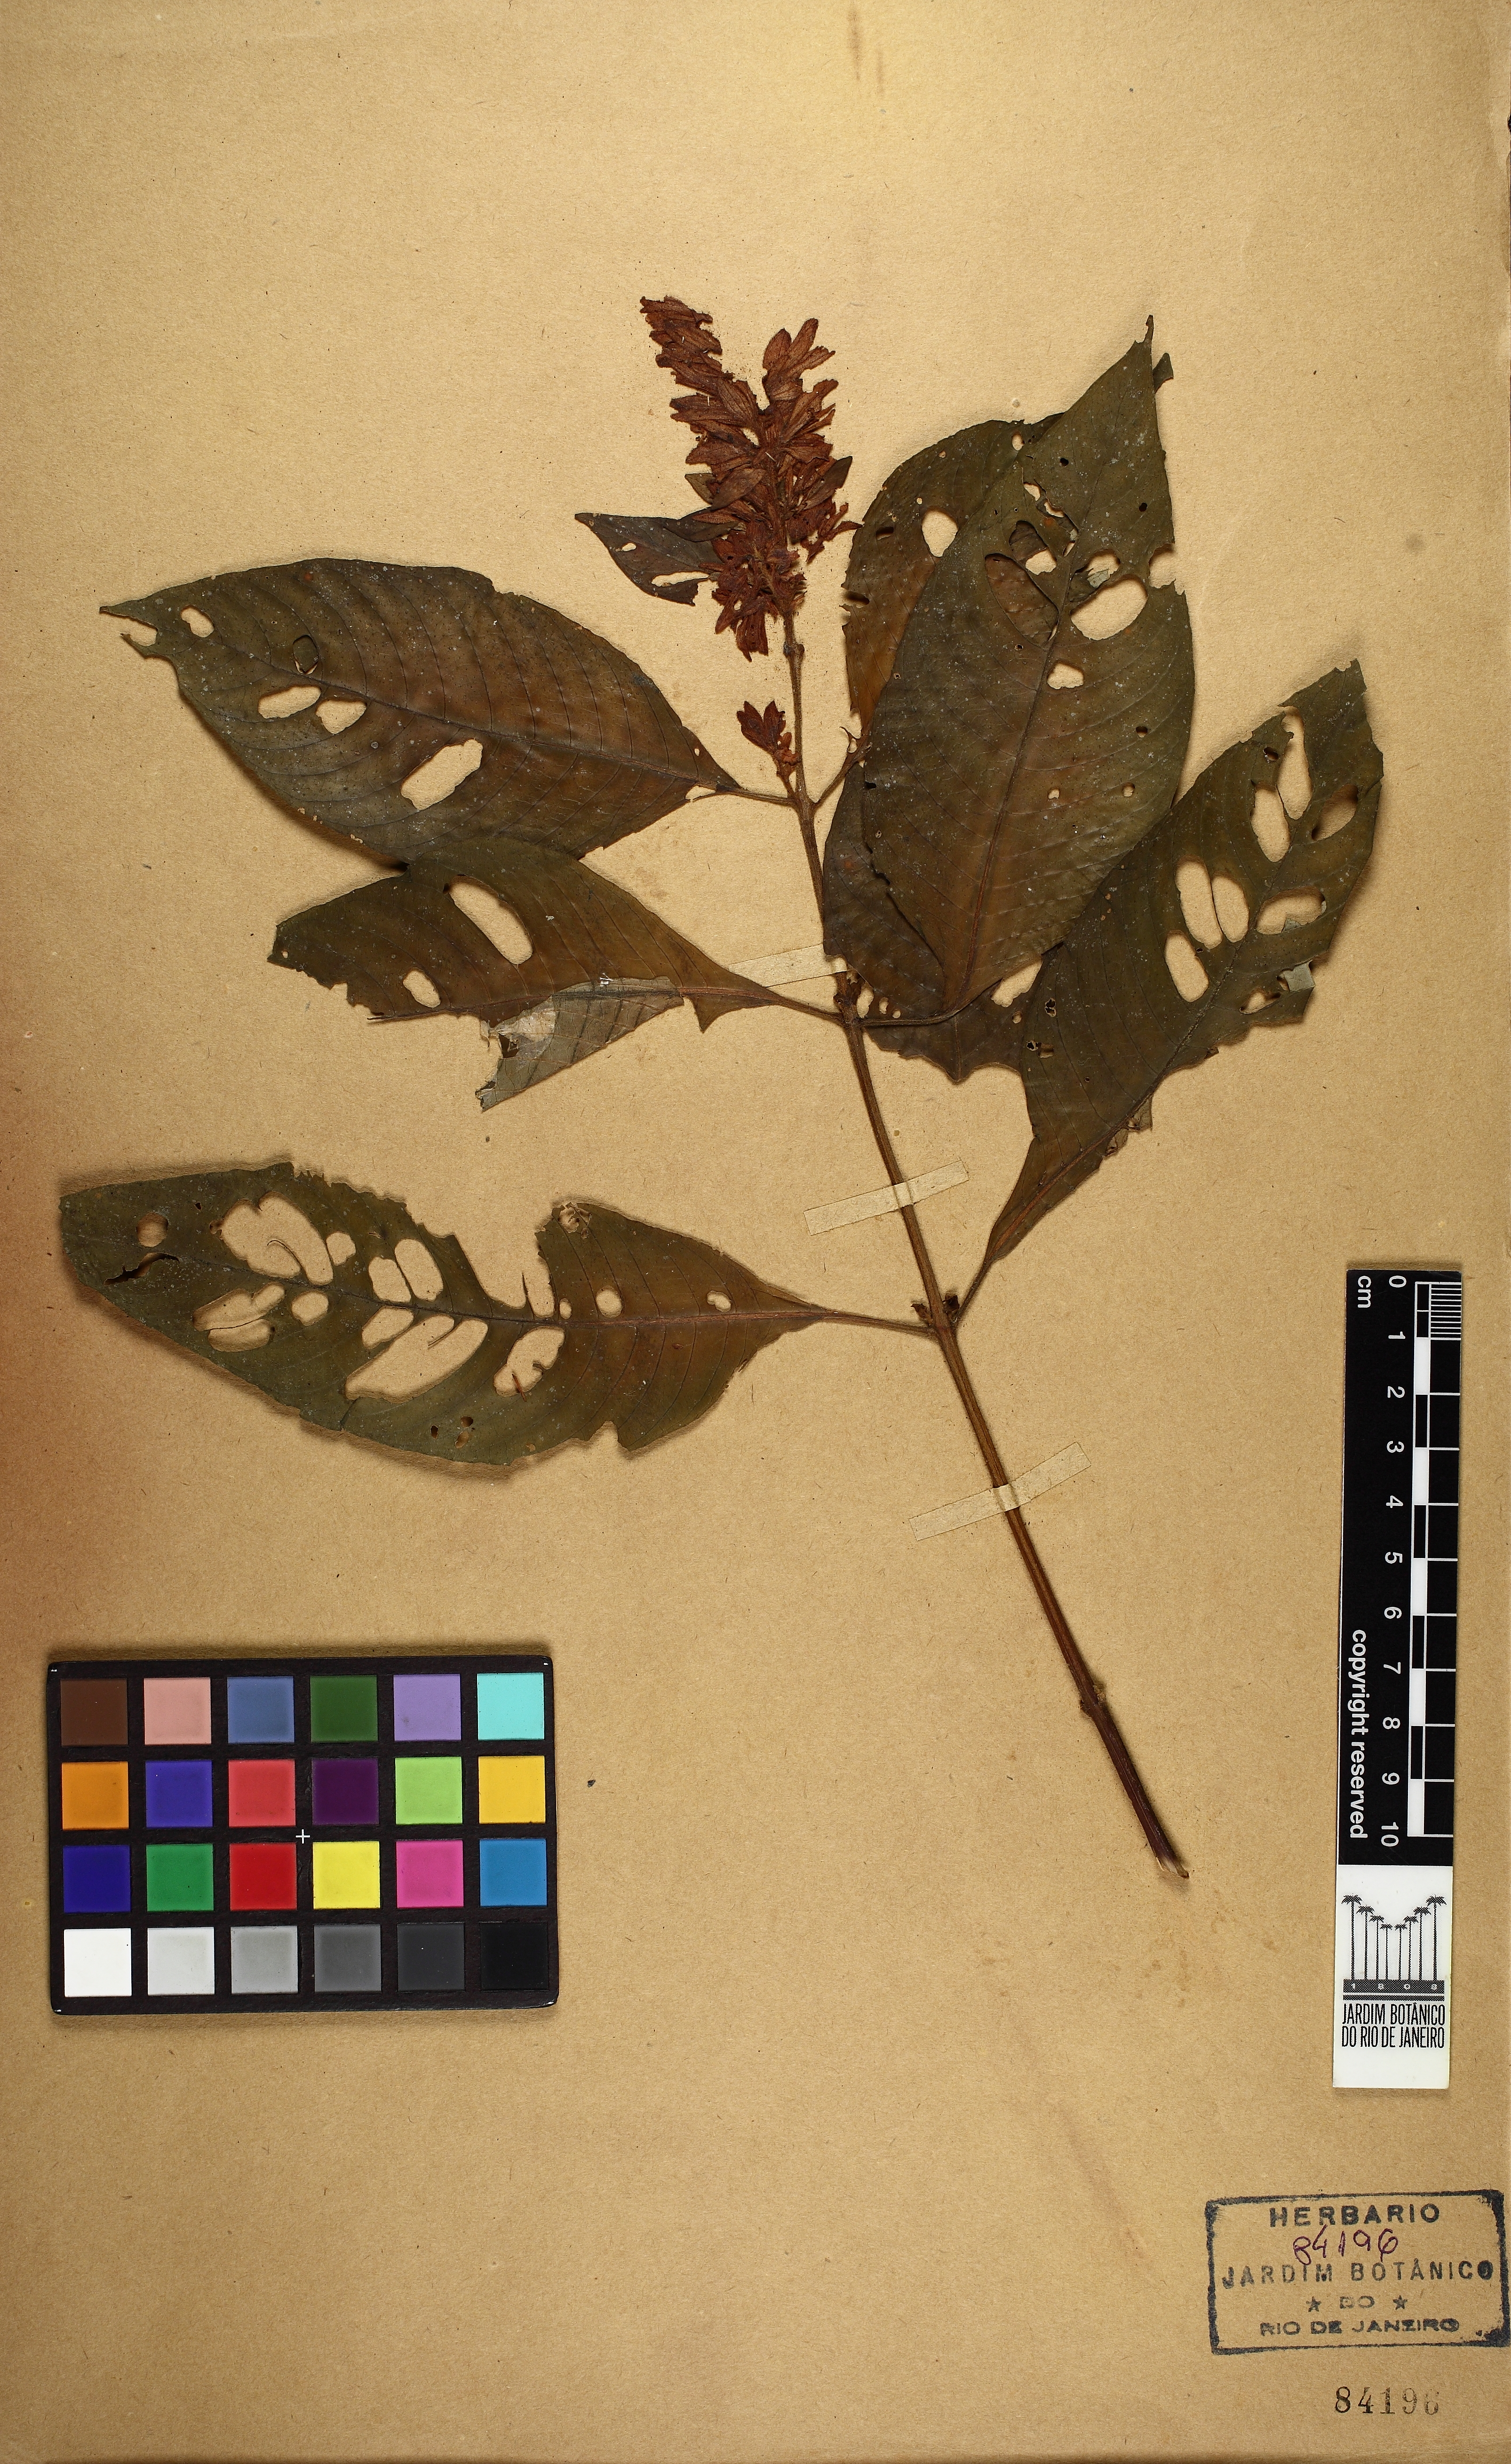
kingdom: Plantae
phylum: Tracheophyta
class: Magnoliopsida
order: Lamiales
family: Acanthaceae
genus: Staurogyne
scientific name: Staurogyne itatiaiae
